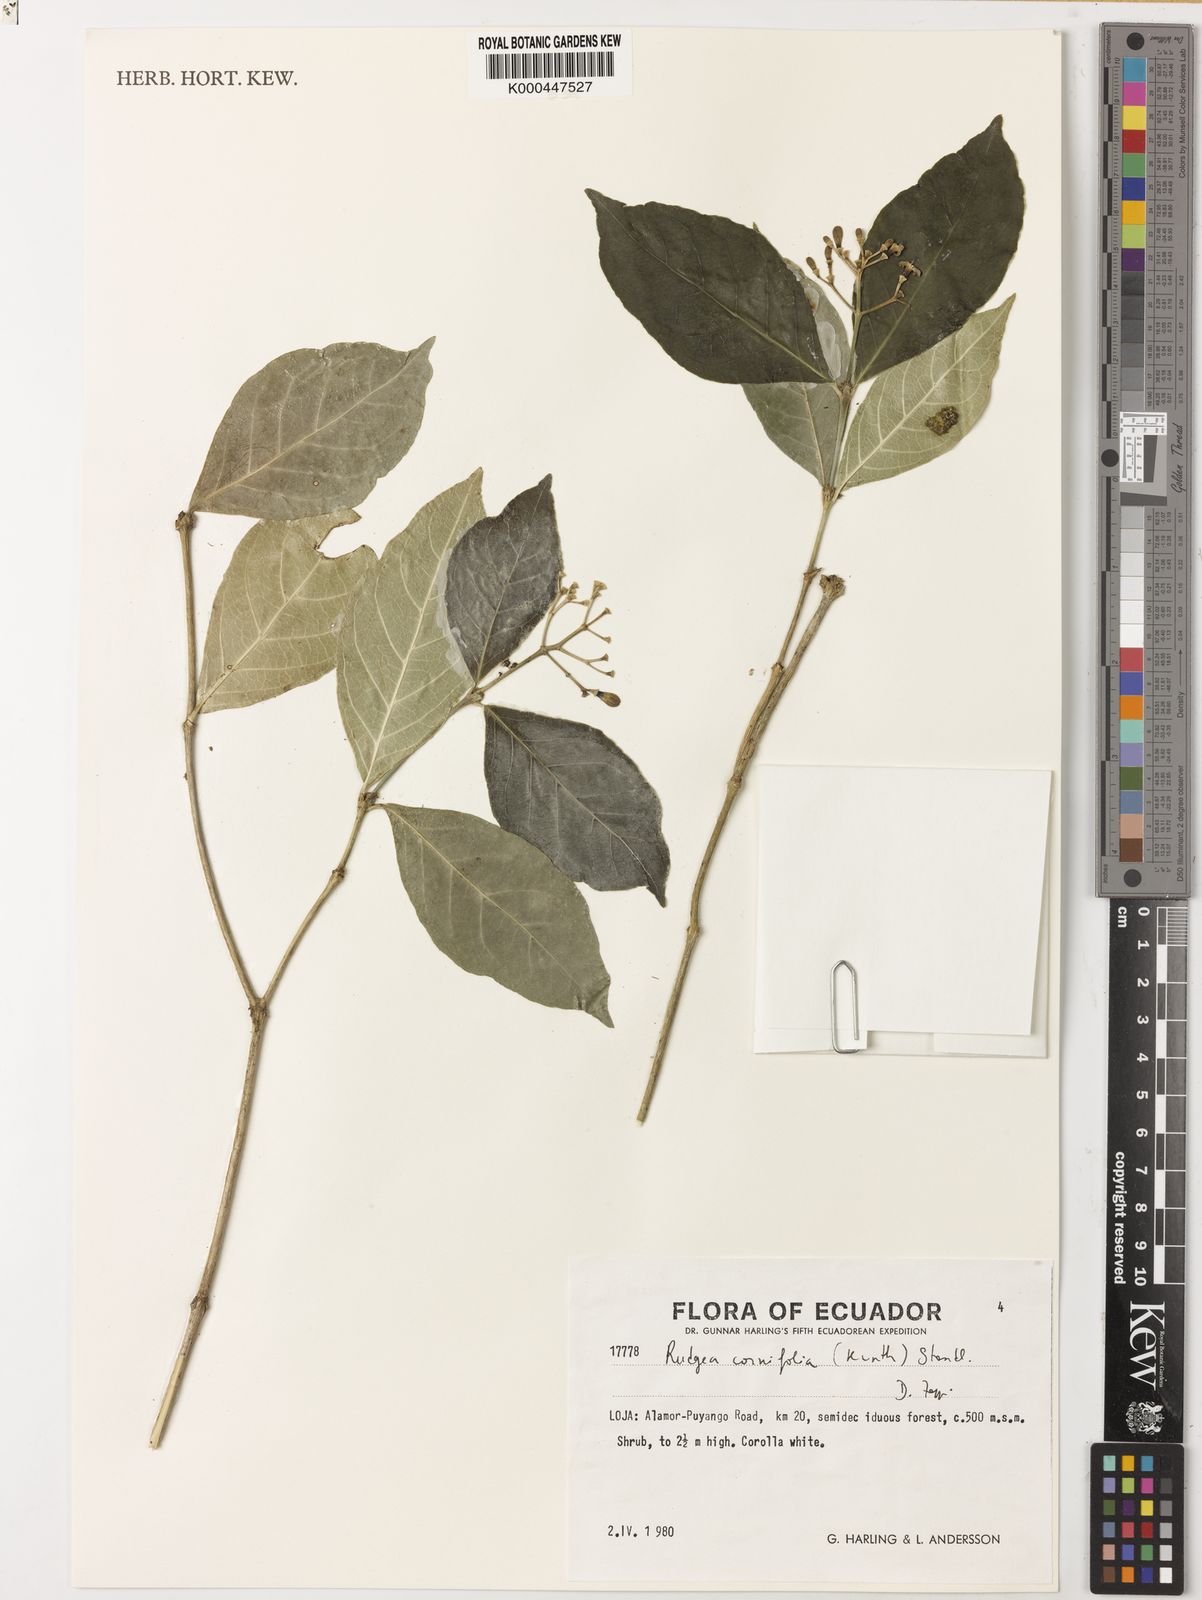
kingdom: Plantae
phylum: Tracheophyta
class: Magnoliopsida
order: Gentianales
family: Rubiaceae
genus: Rudgea
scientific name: Rudgea cornifolia
